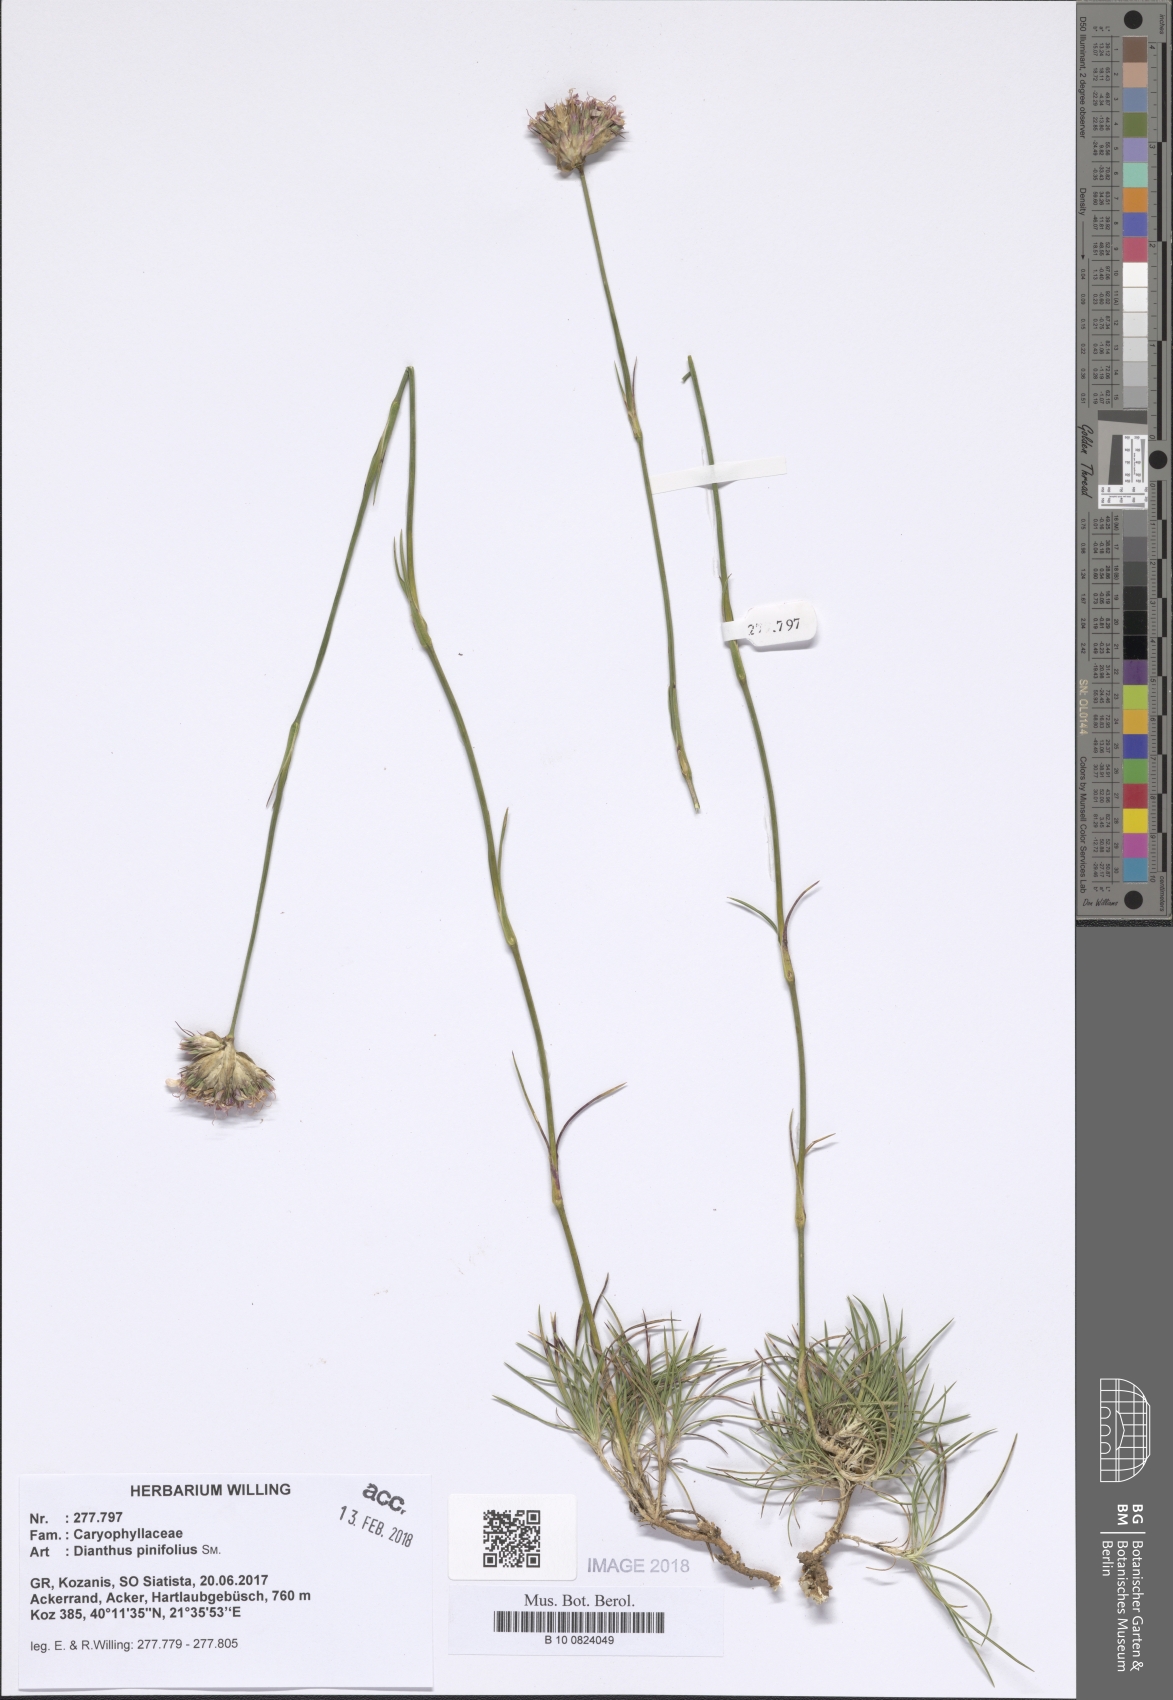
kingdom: Plantae
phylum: Tracheophyta
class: Magnoliopsida
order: Caryophyllales
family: Caryophyllaceae
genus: Dianthus
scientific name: Dianthus pinifolius
